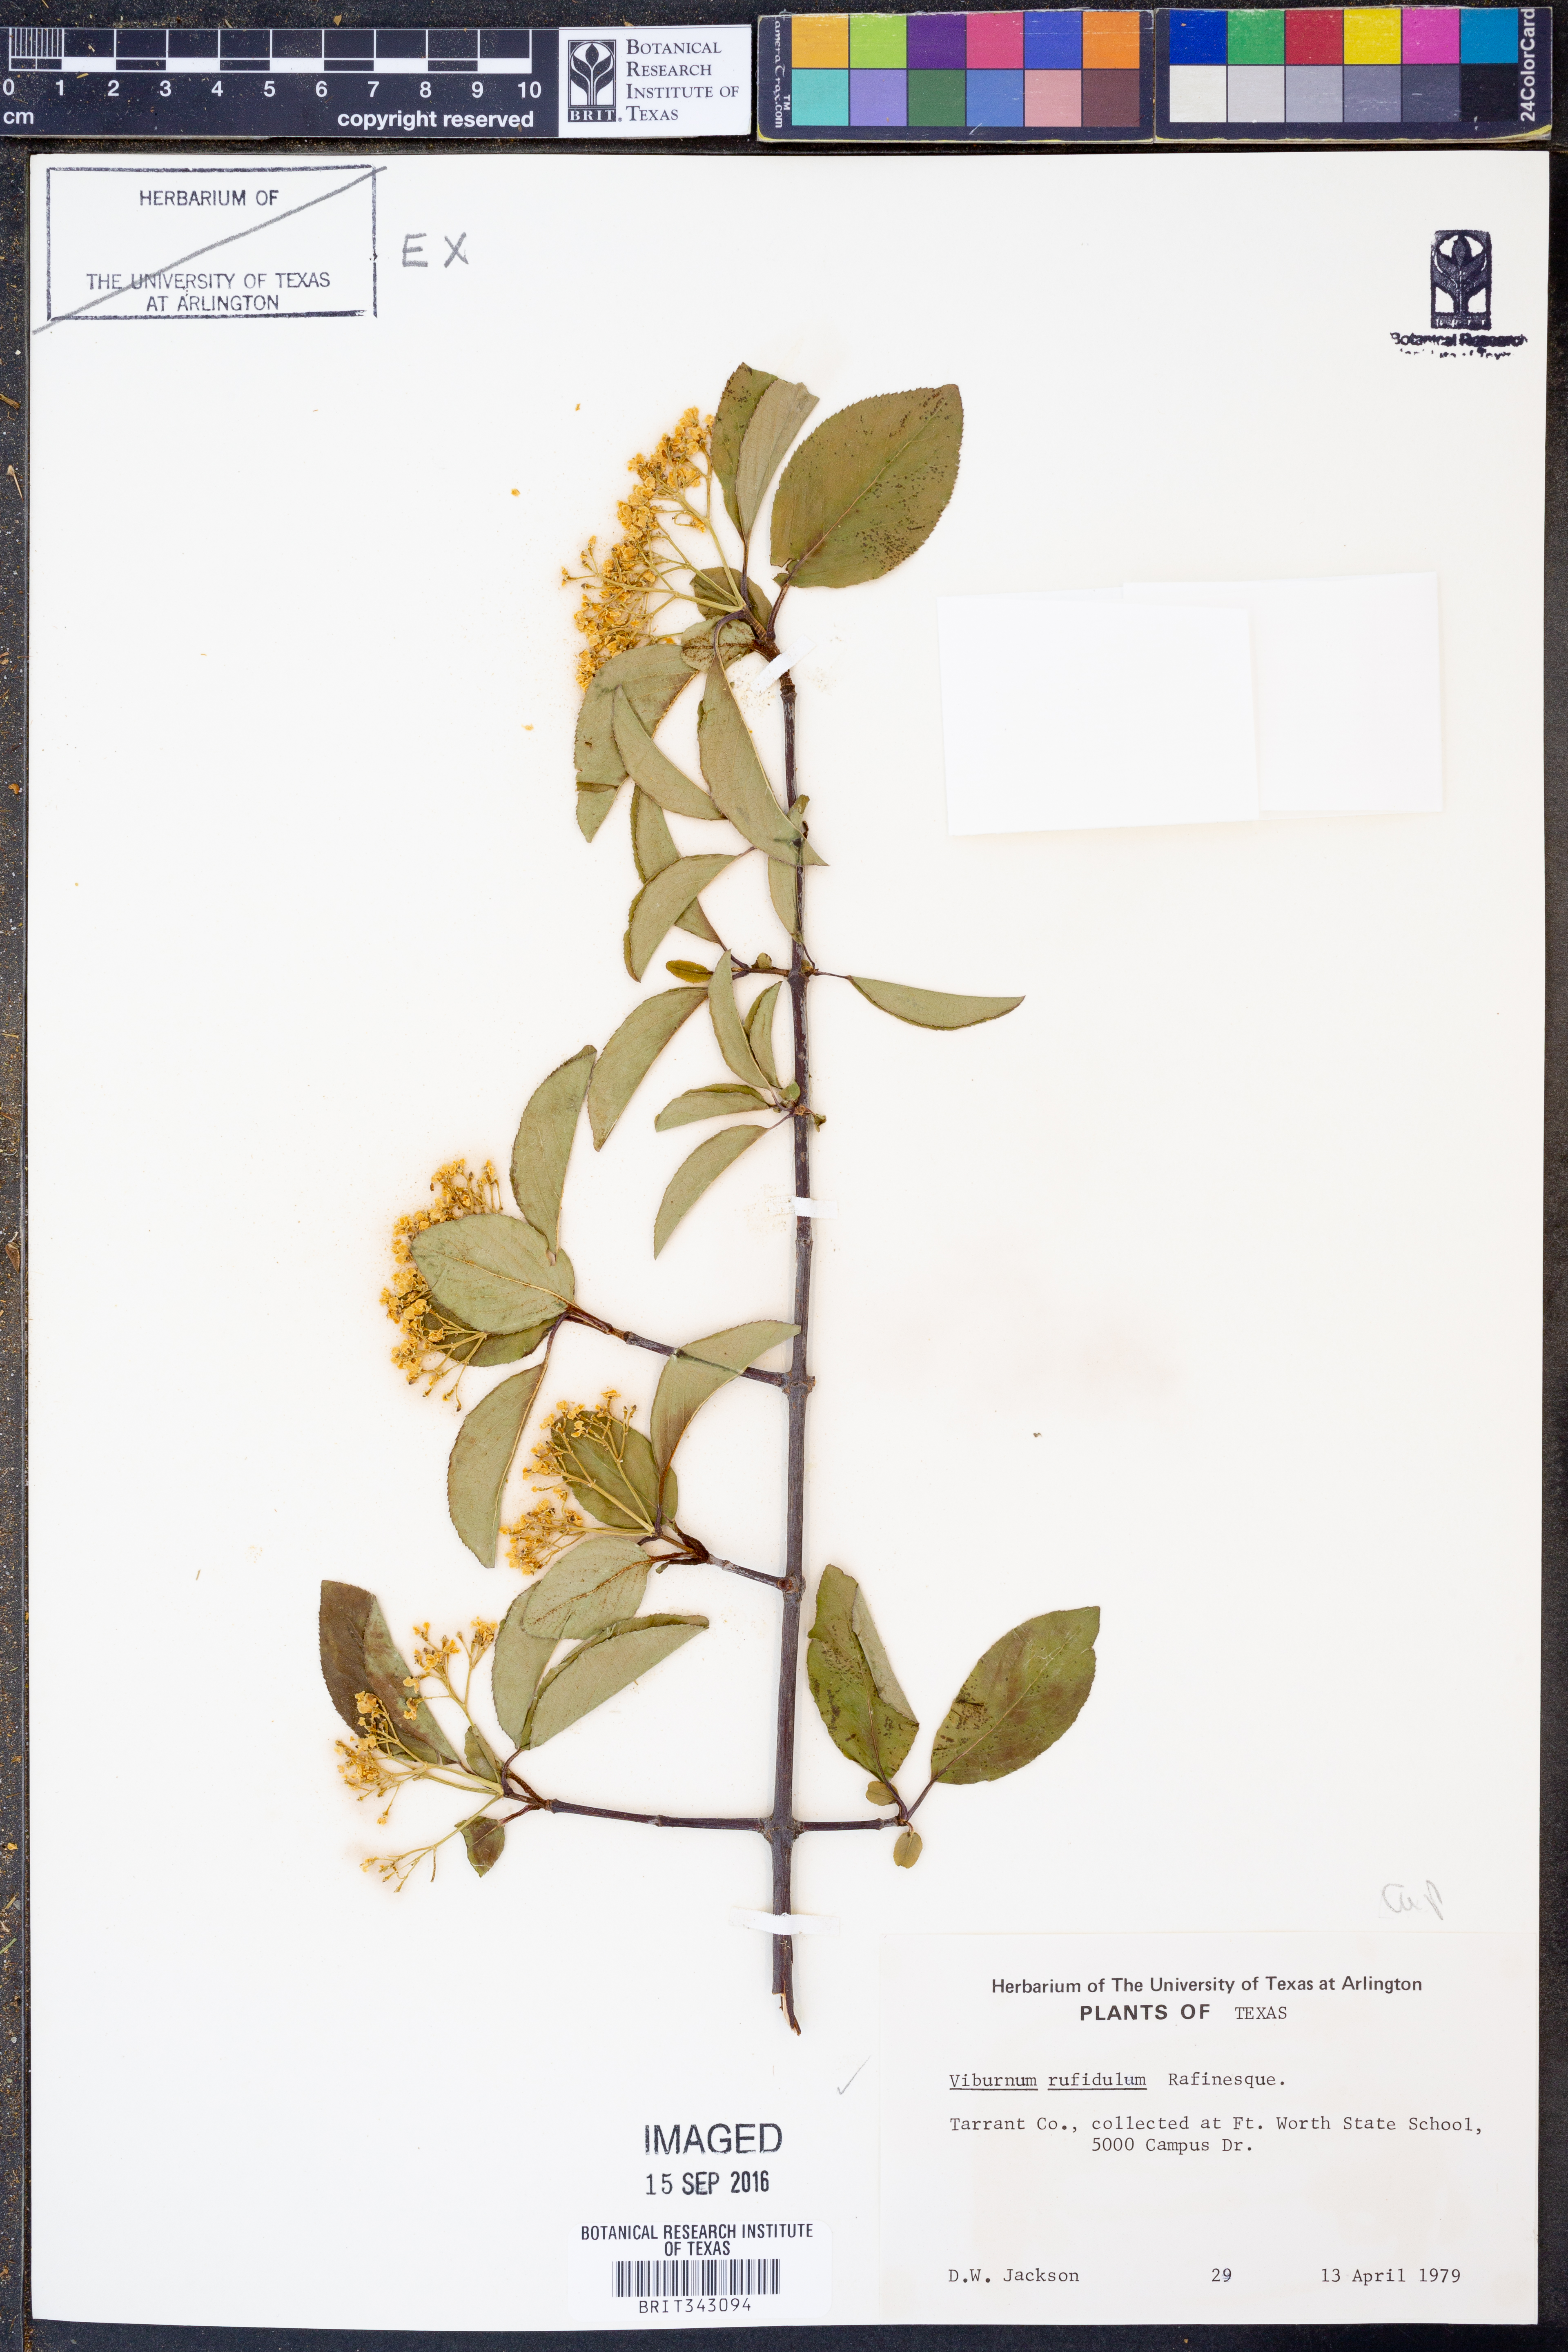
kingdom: Plantae
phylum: Tracheophyta
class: Magnoliopsida
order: Dipsacales
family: Viburnaceae
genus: Viburnum
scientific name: Viburnum rufidulum
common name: Blue haw
